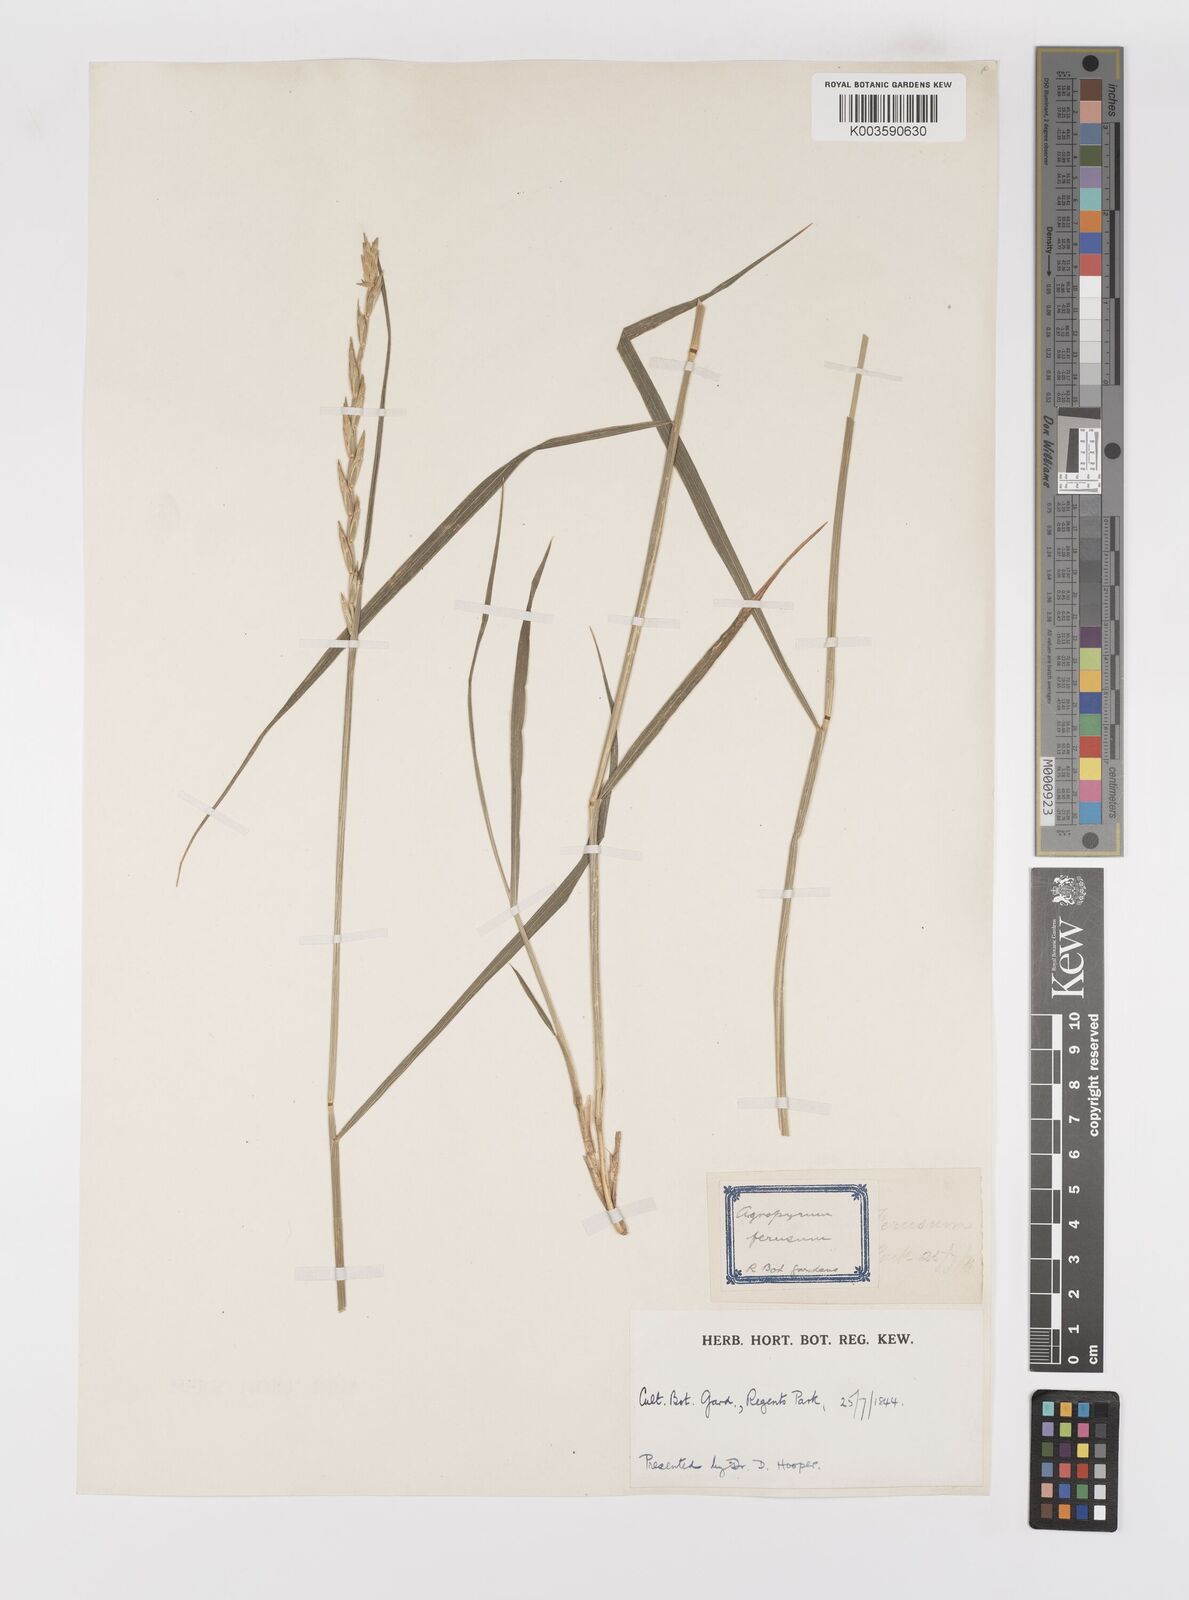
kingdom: Plantae
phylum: Tracheophyta
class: Liliopsida
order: Poales
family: Poaceae
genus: Thinopyrum
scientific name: Thinopyrum intermedium
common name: Intermediate wheatgrass
